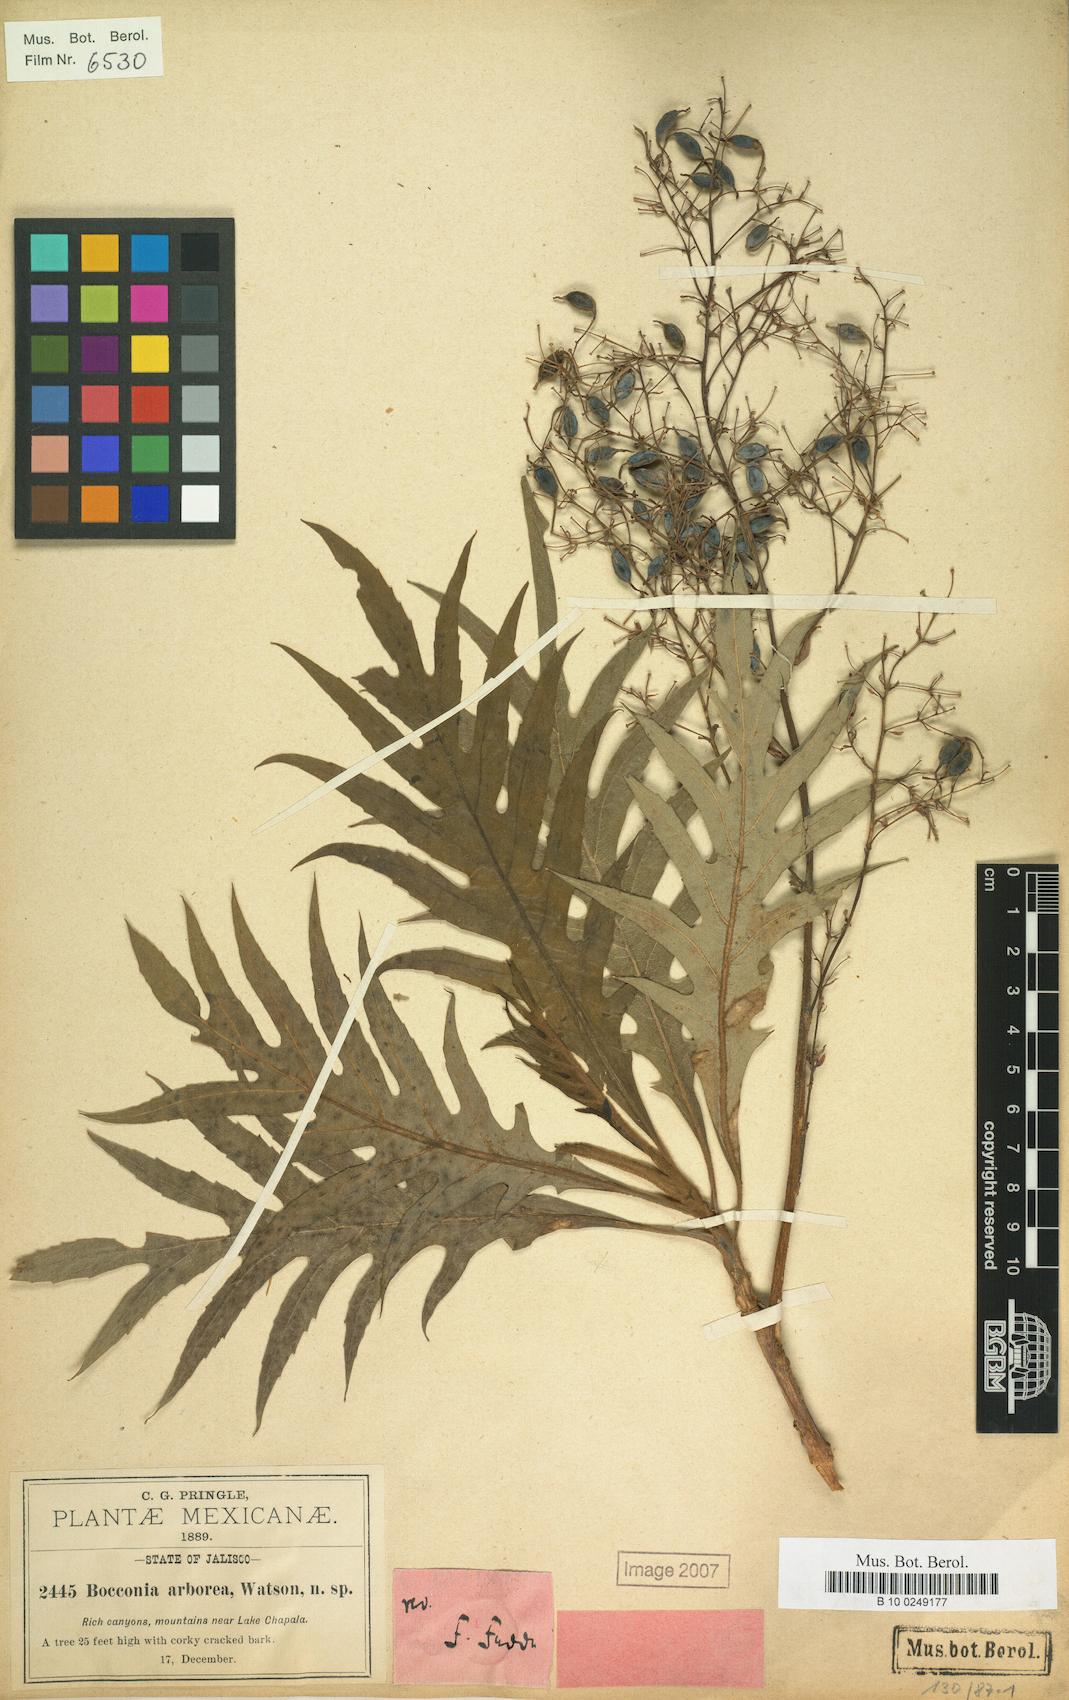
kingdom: Plantae
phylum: Tracheophyta
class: Magnoliopsida
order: Ranunculales
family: Papaveraceae
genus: Bocconia
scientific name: Bocconia arborea
